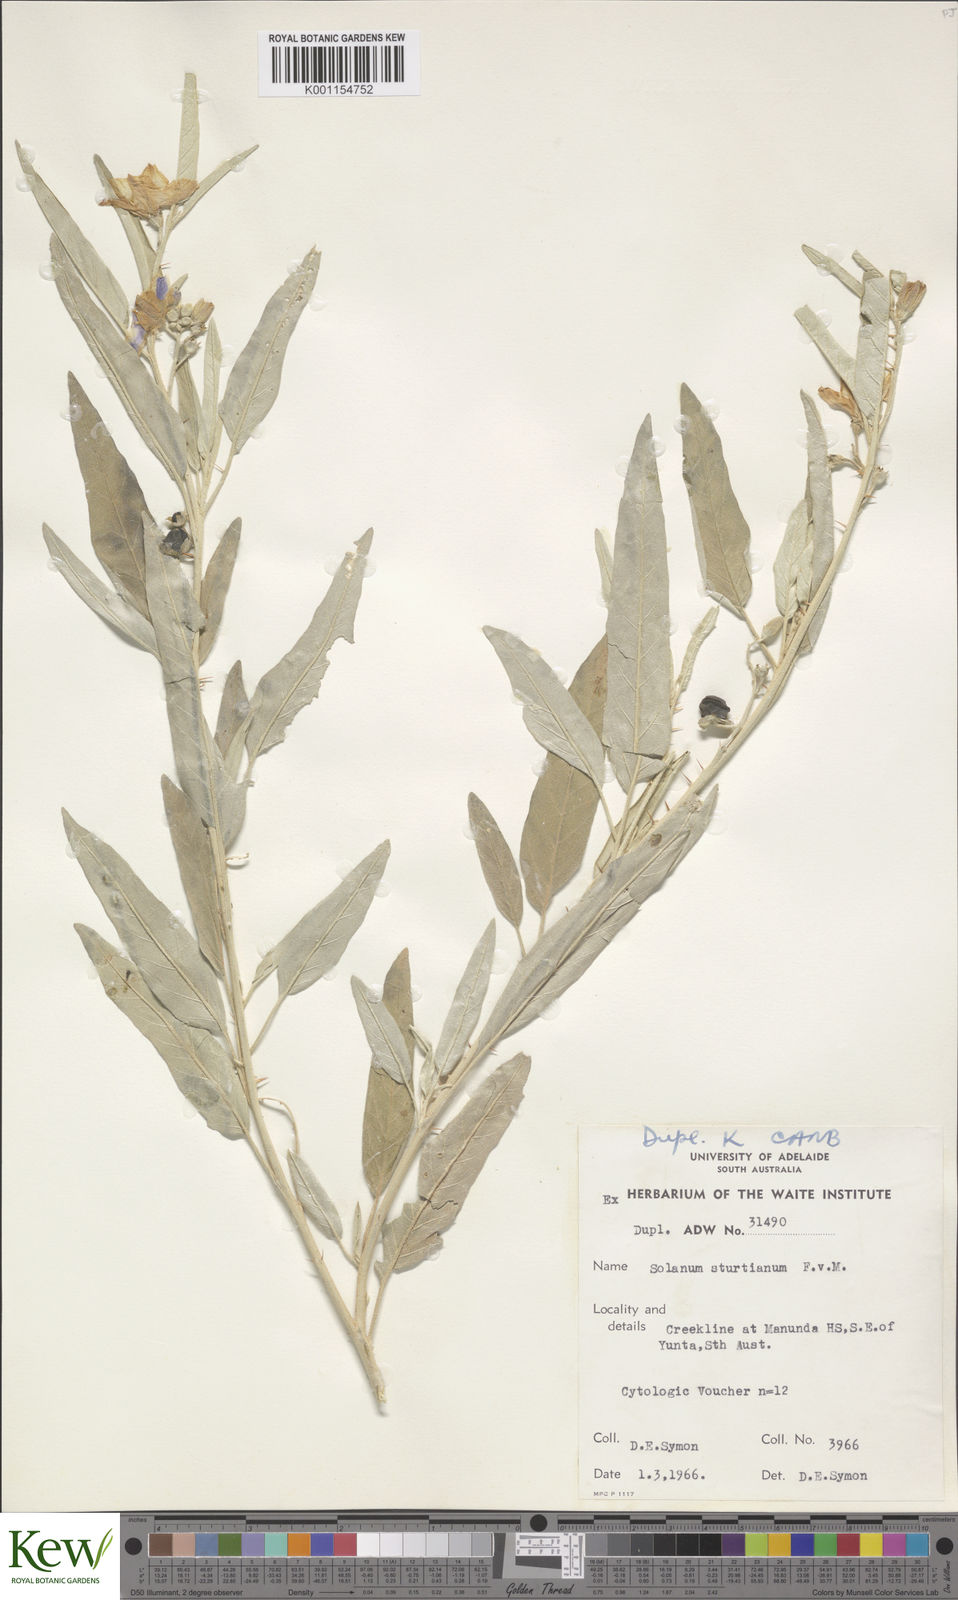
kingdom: Plantae
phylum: Tracheophyta
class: Magnoliopsida
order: Solanales
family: Solanaceae
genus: Solanum
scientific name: Solanum sturtianum
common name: Thargomindah nightshade
